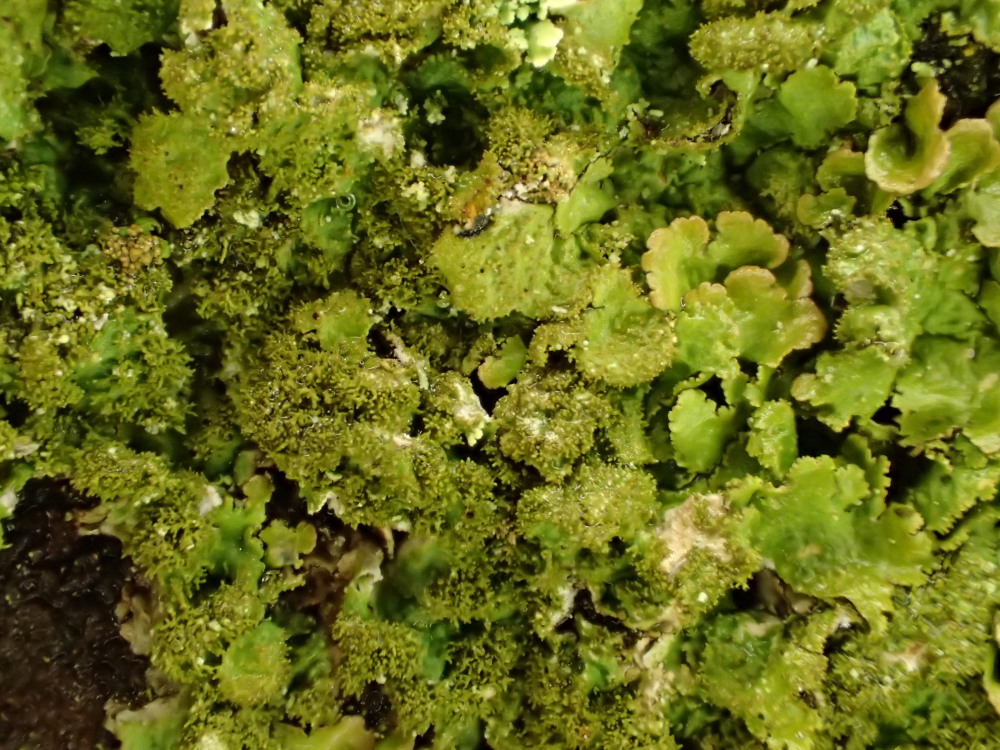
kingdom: Fungi
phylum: Ascomycota
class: Lecanoromycetes
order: Lecanorales
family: Parmeliaceae
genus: Melanelixia
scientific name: Melanelixia glabratula
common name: glinsende skållav
